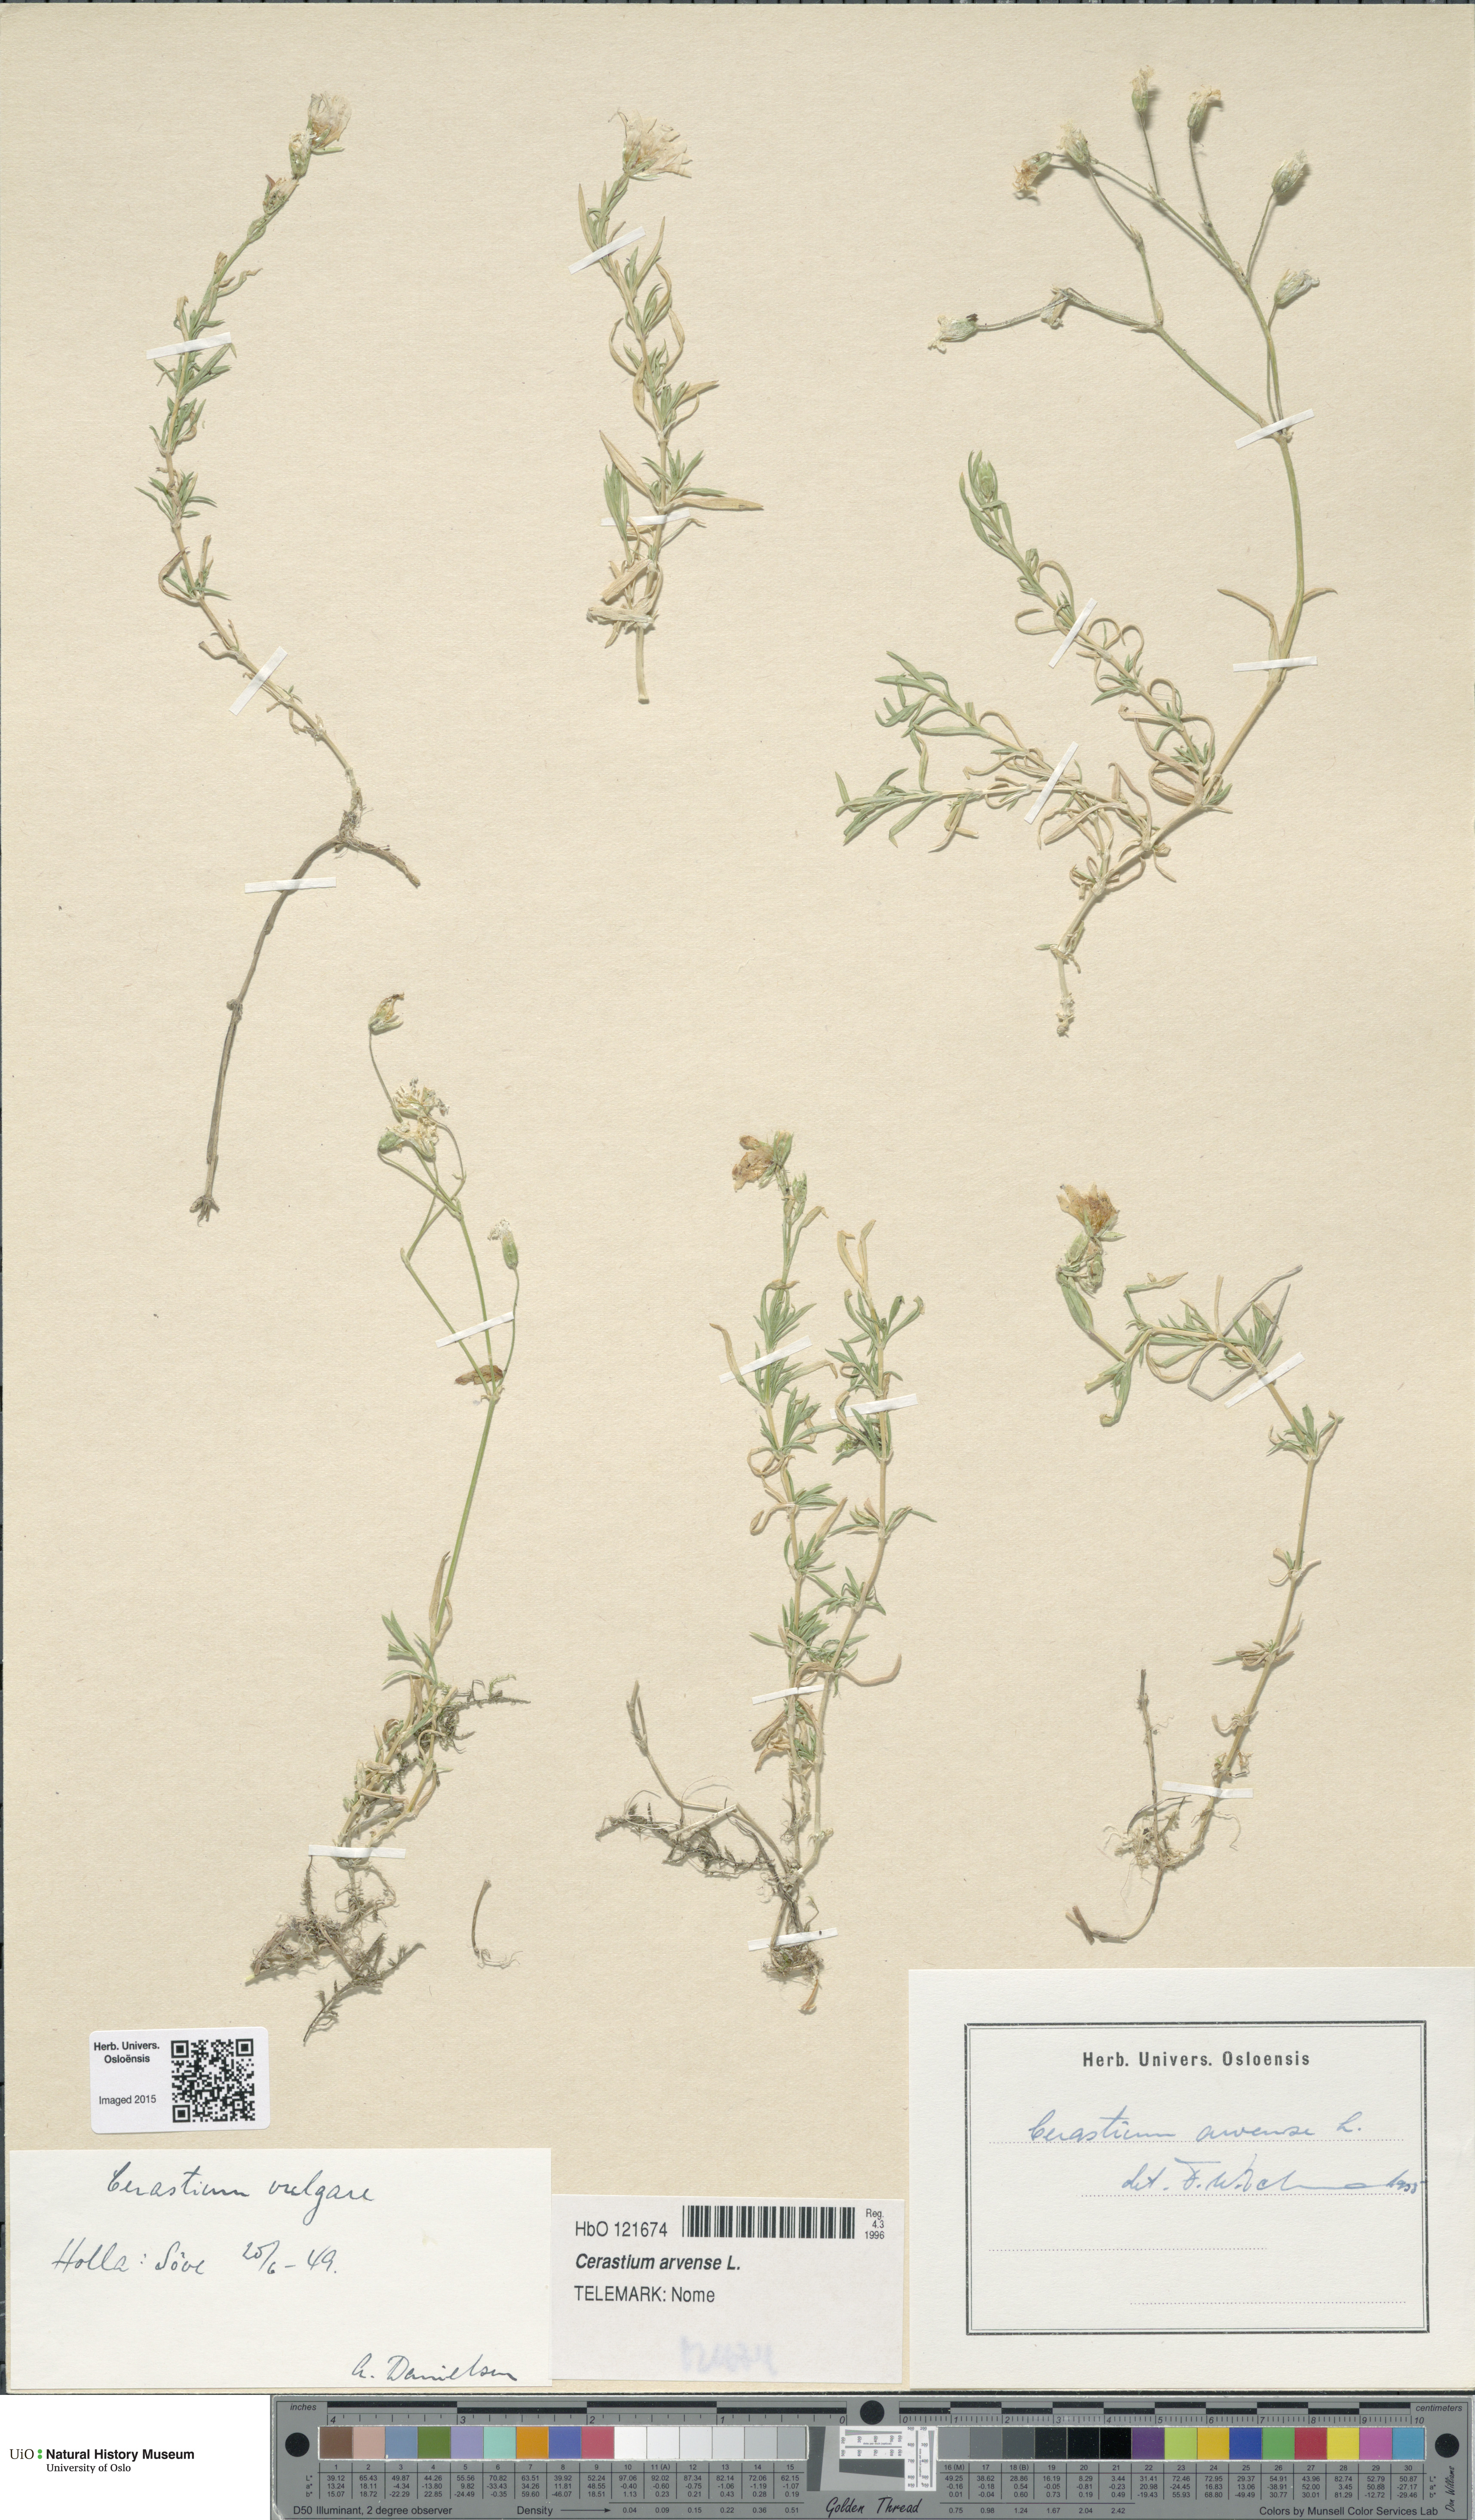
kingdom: Plantae
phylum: Tracheophyta
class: Magnoliopsida
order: Caryophyllales
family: Caryophyllaceae
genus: Cerastium
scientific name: Cerastium arvense
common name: Field mouse-ear
